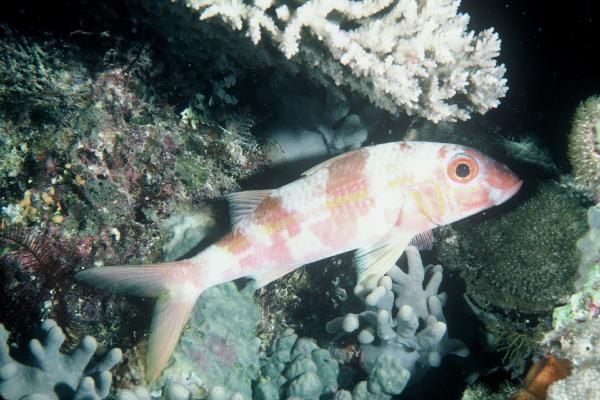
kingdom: Animalia
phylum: Chordata
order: Perciformes
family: Mullidae
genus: Mulloidichthys
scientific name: Mulloidichthys vanicolensis
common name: Yellowfin goatfish
